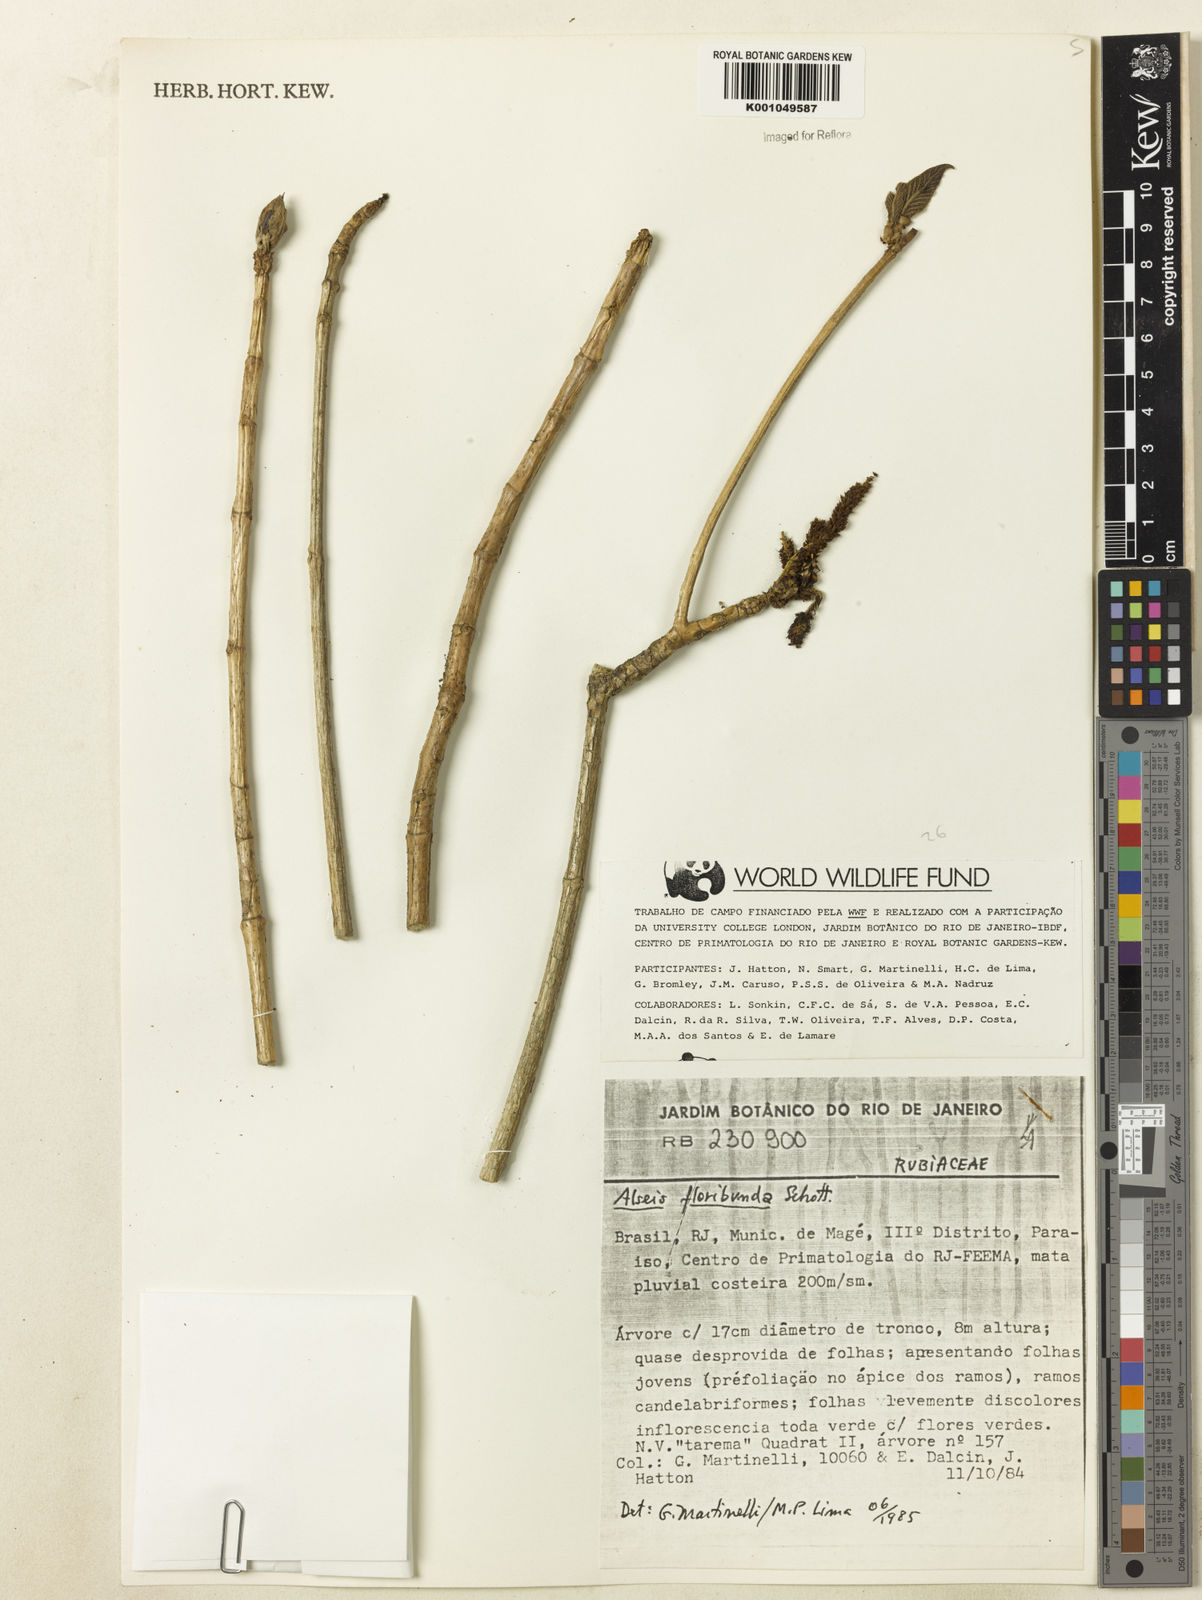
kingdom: Plantae
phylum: Tracheophyta
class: Magnoliopsida
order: Gentianales
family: Rubiaceae
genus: Alseis
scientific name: Alseis floribunda
